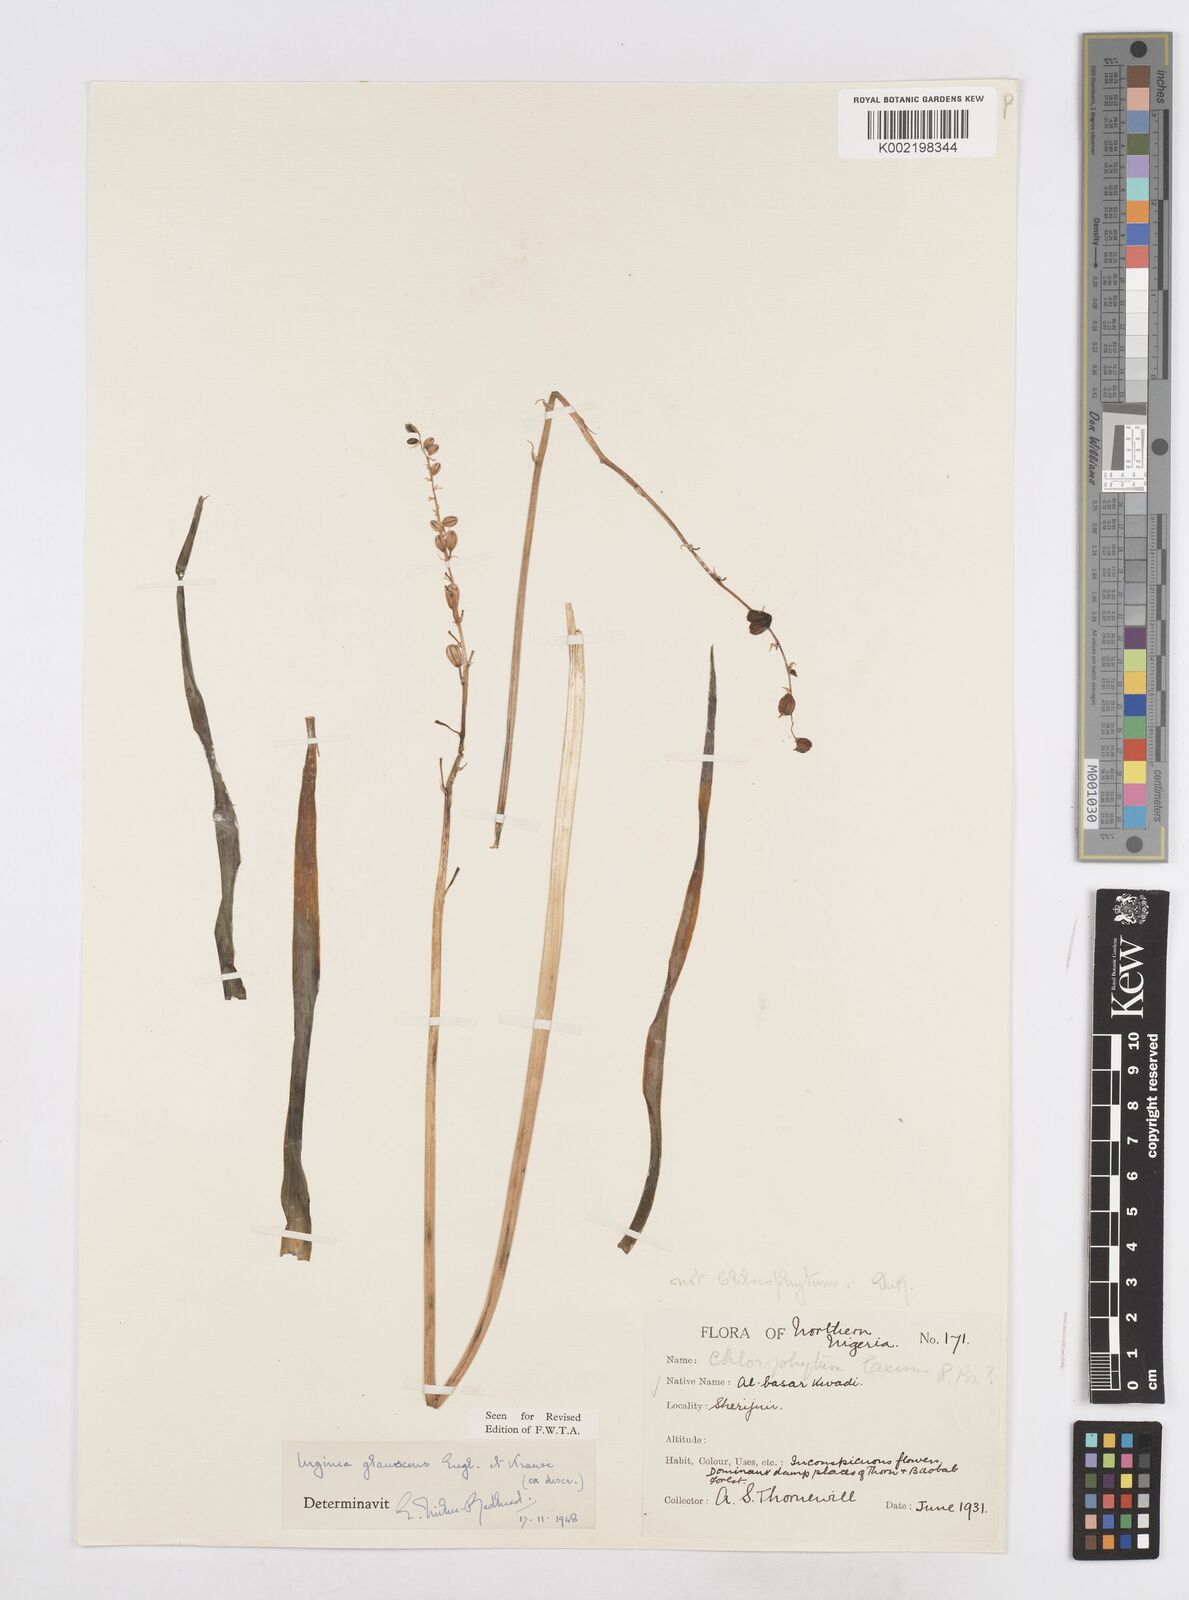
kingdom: Plantae
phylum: Tracheophyta
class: Liliopsida
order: Asparagales
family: Asparagaceae
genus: Ledebouria
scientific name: Ledebouria ensifolia
